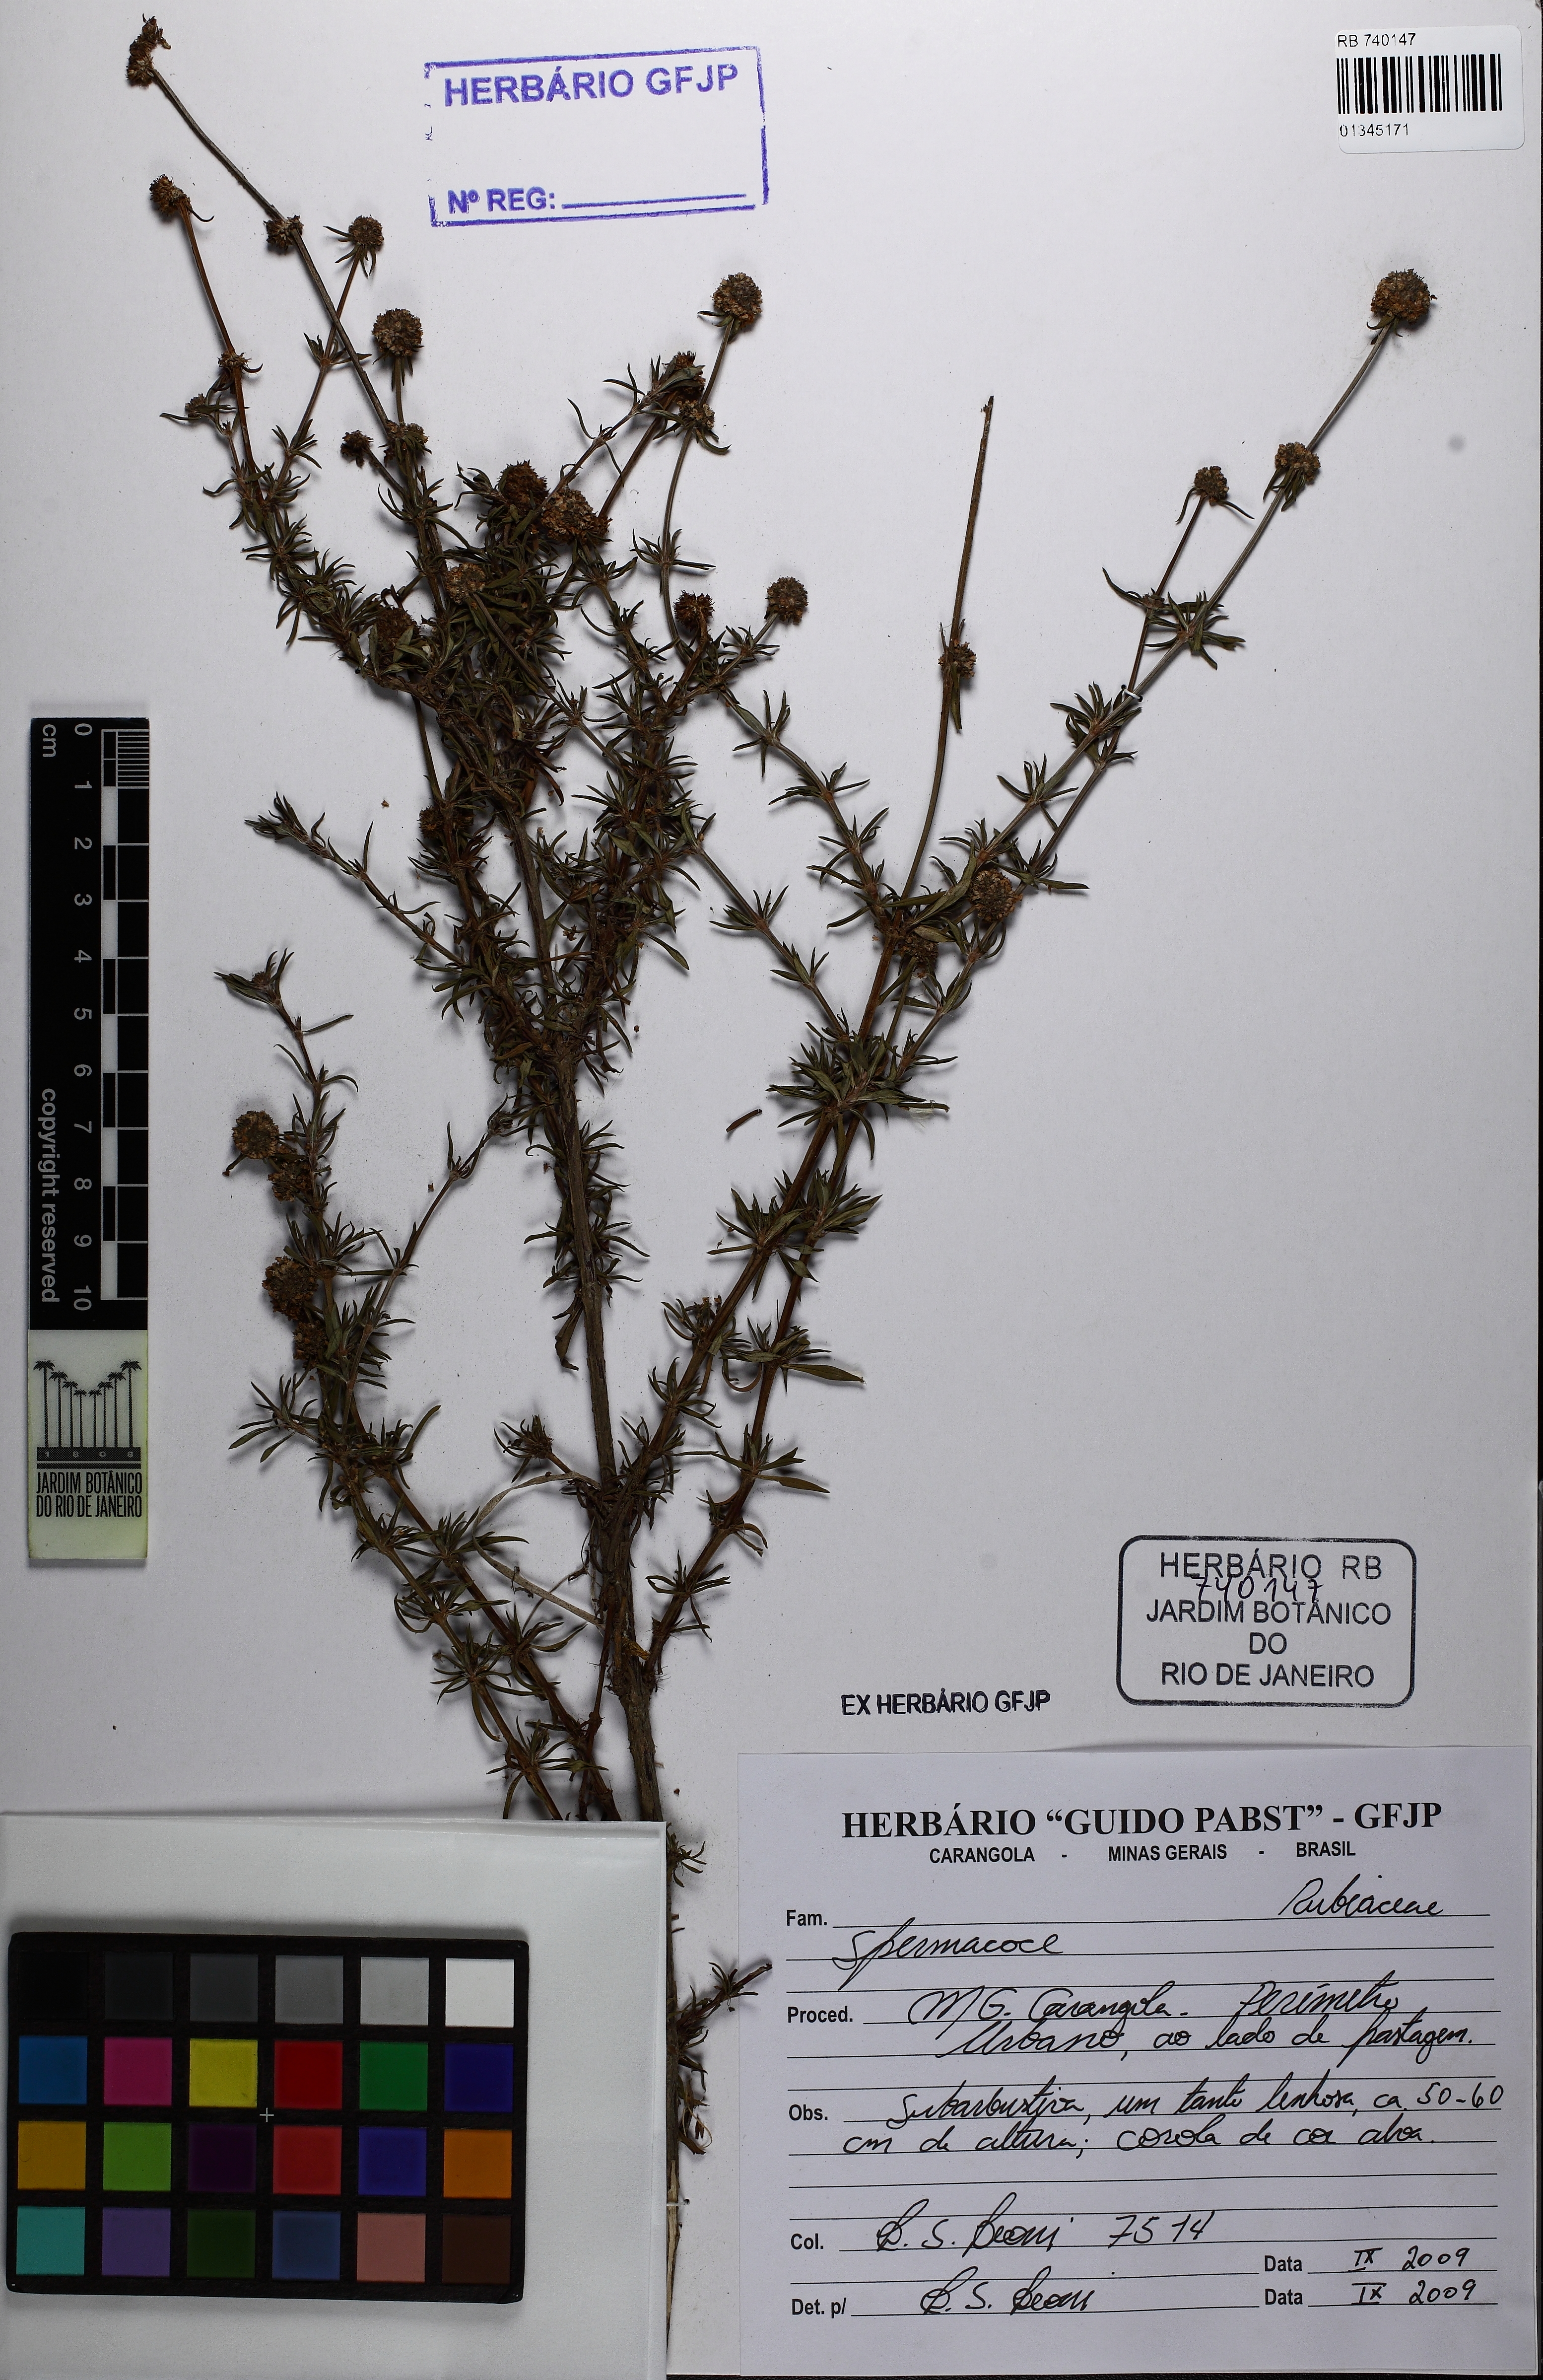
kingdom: Plantae
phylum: Tracheophyta
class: Magnoliopsida
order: Gentianales
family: Rubiaceae
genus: Spermacoce
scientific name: Spermacoce
